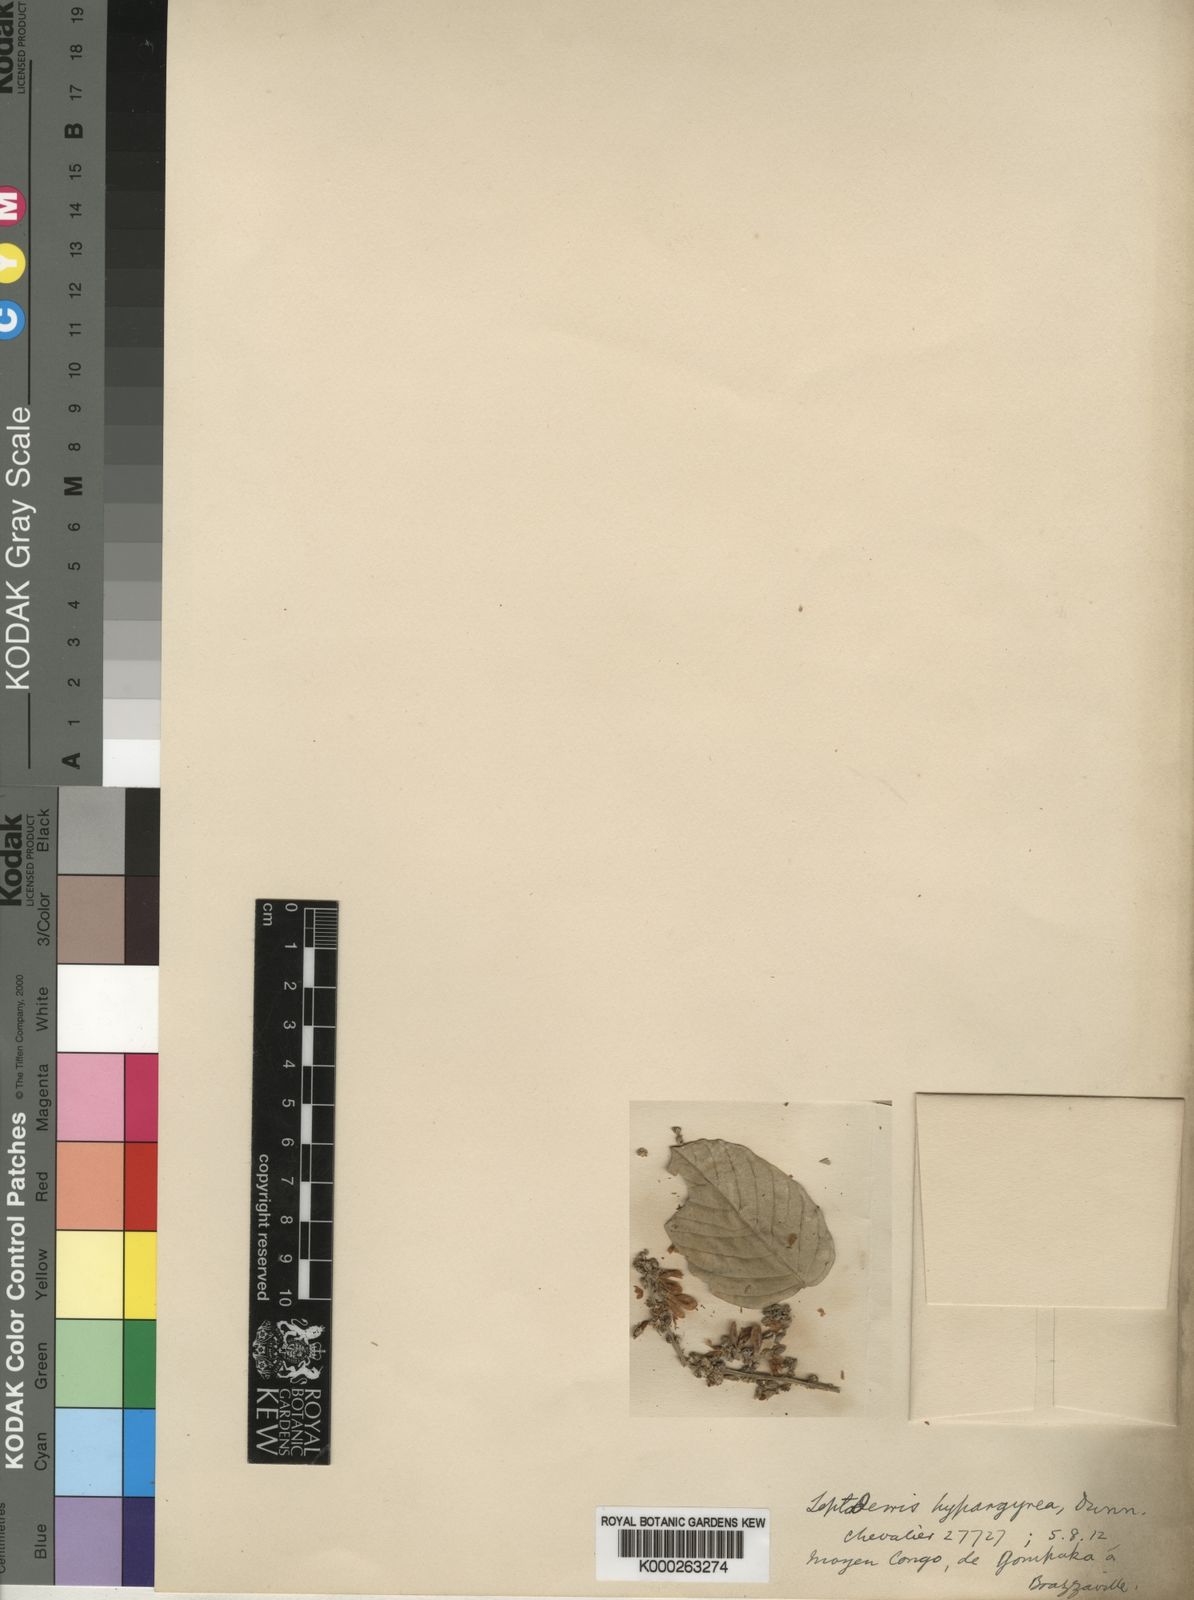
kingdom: Plantae
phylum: Tracheophyta
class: Magnoliopsida
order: Fabales
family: Fabaceae
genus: Leptoderris
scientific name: Leptoderris hypargyrea
